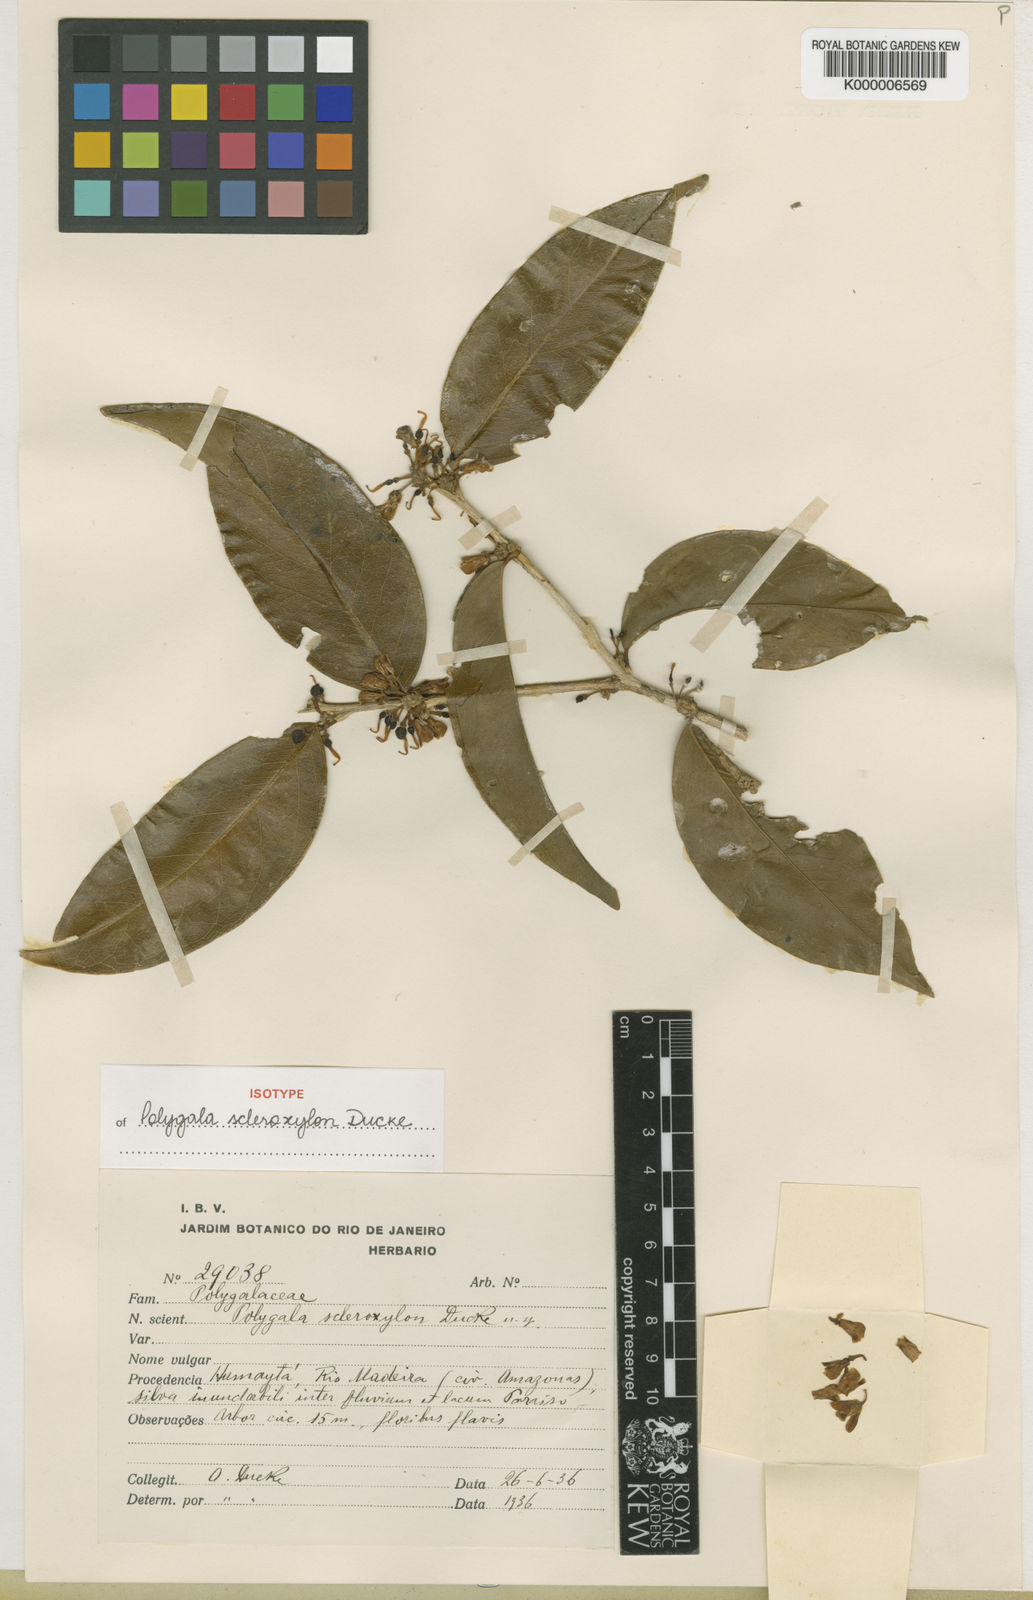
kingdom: Plantae
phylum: Tracheophyta
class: Magnoliopsida
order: Fabales
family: Polygalaceae
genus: Acanthocladus
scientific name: Acanthocladus scleroxylon
